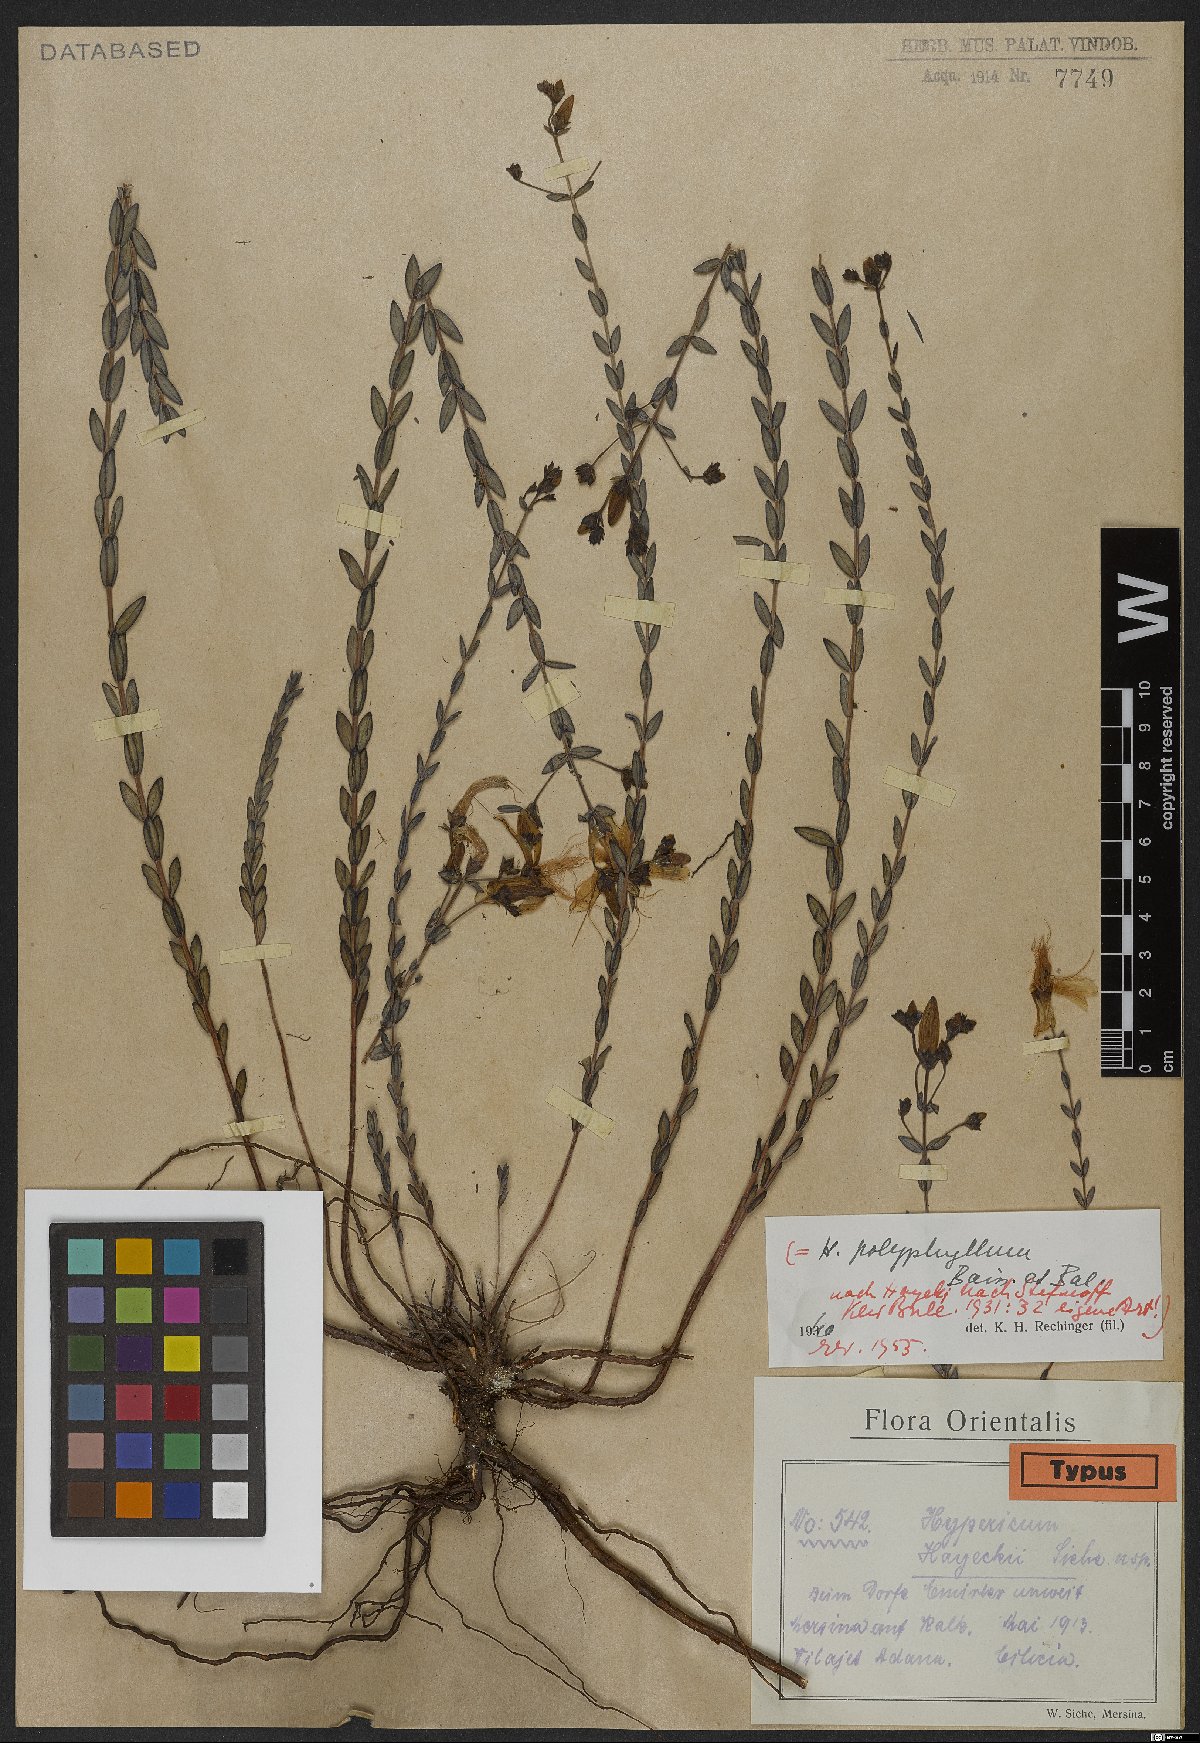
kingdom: Plantae
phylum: Tracheophyta
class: Magnoliopsida
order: Malpighiales
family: Clusiaceae
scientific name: Clusiaceae
